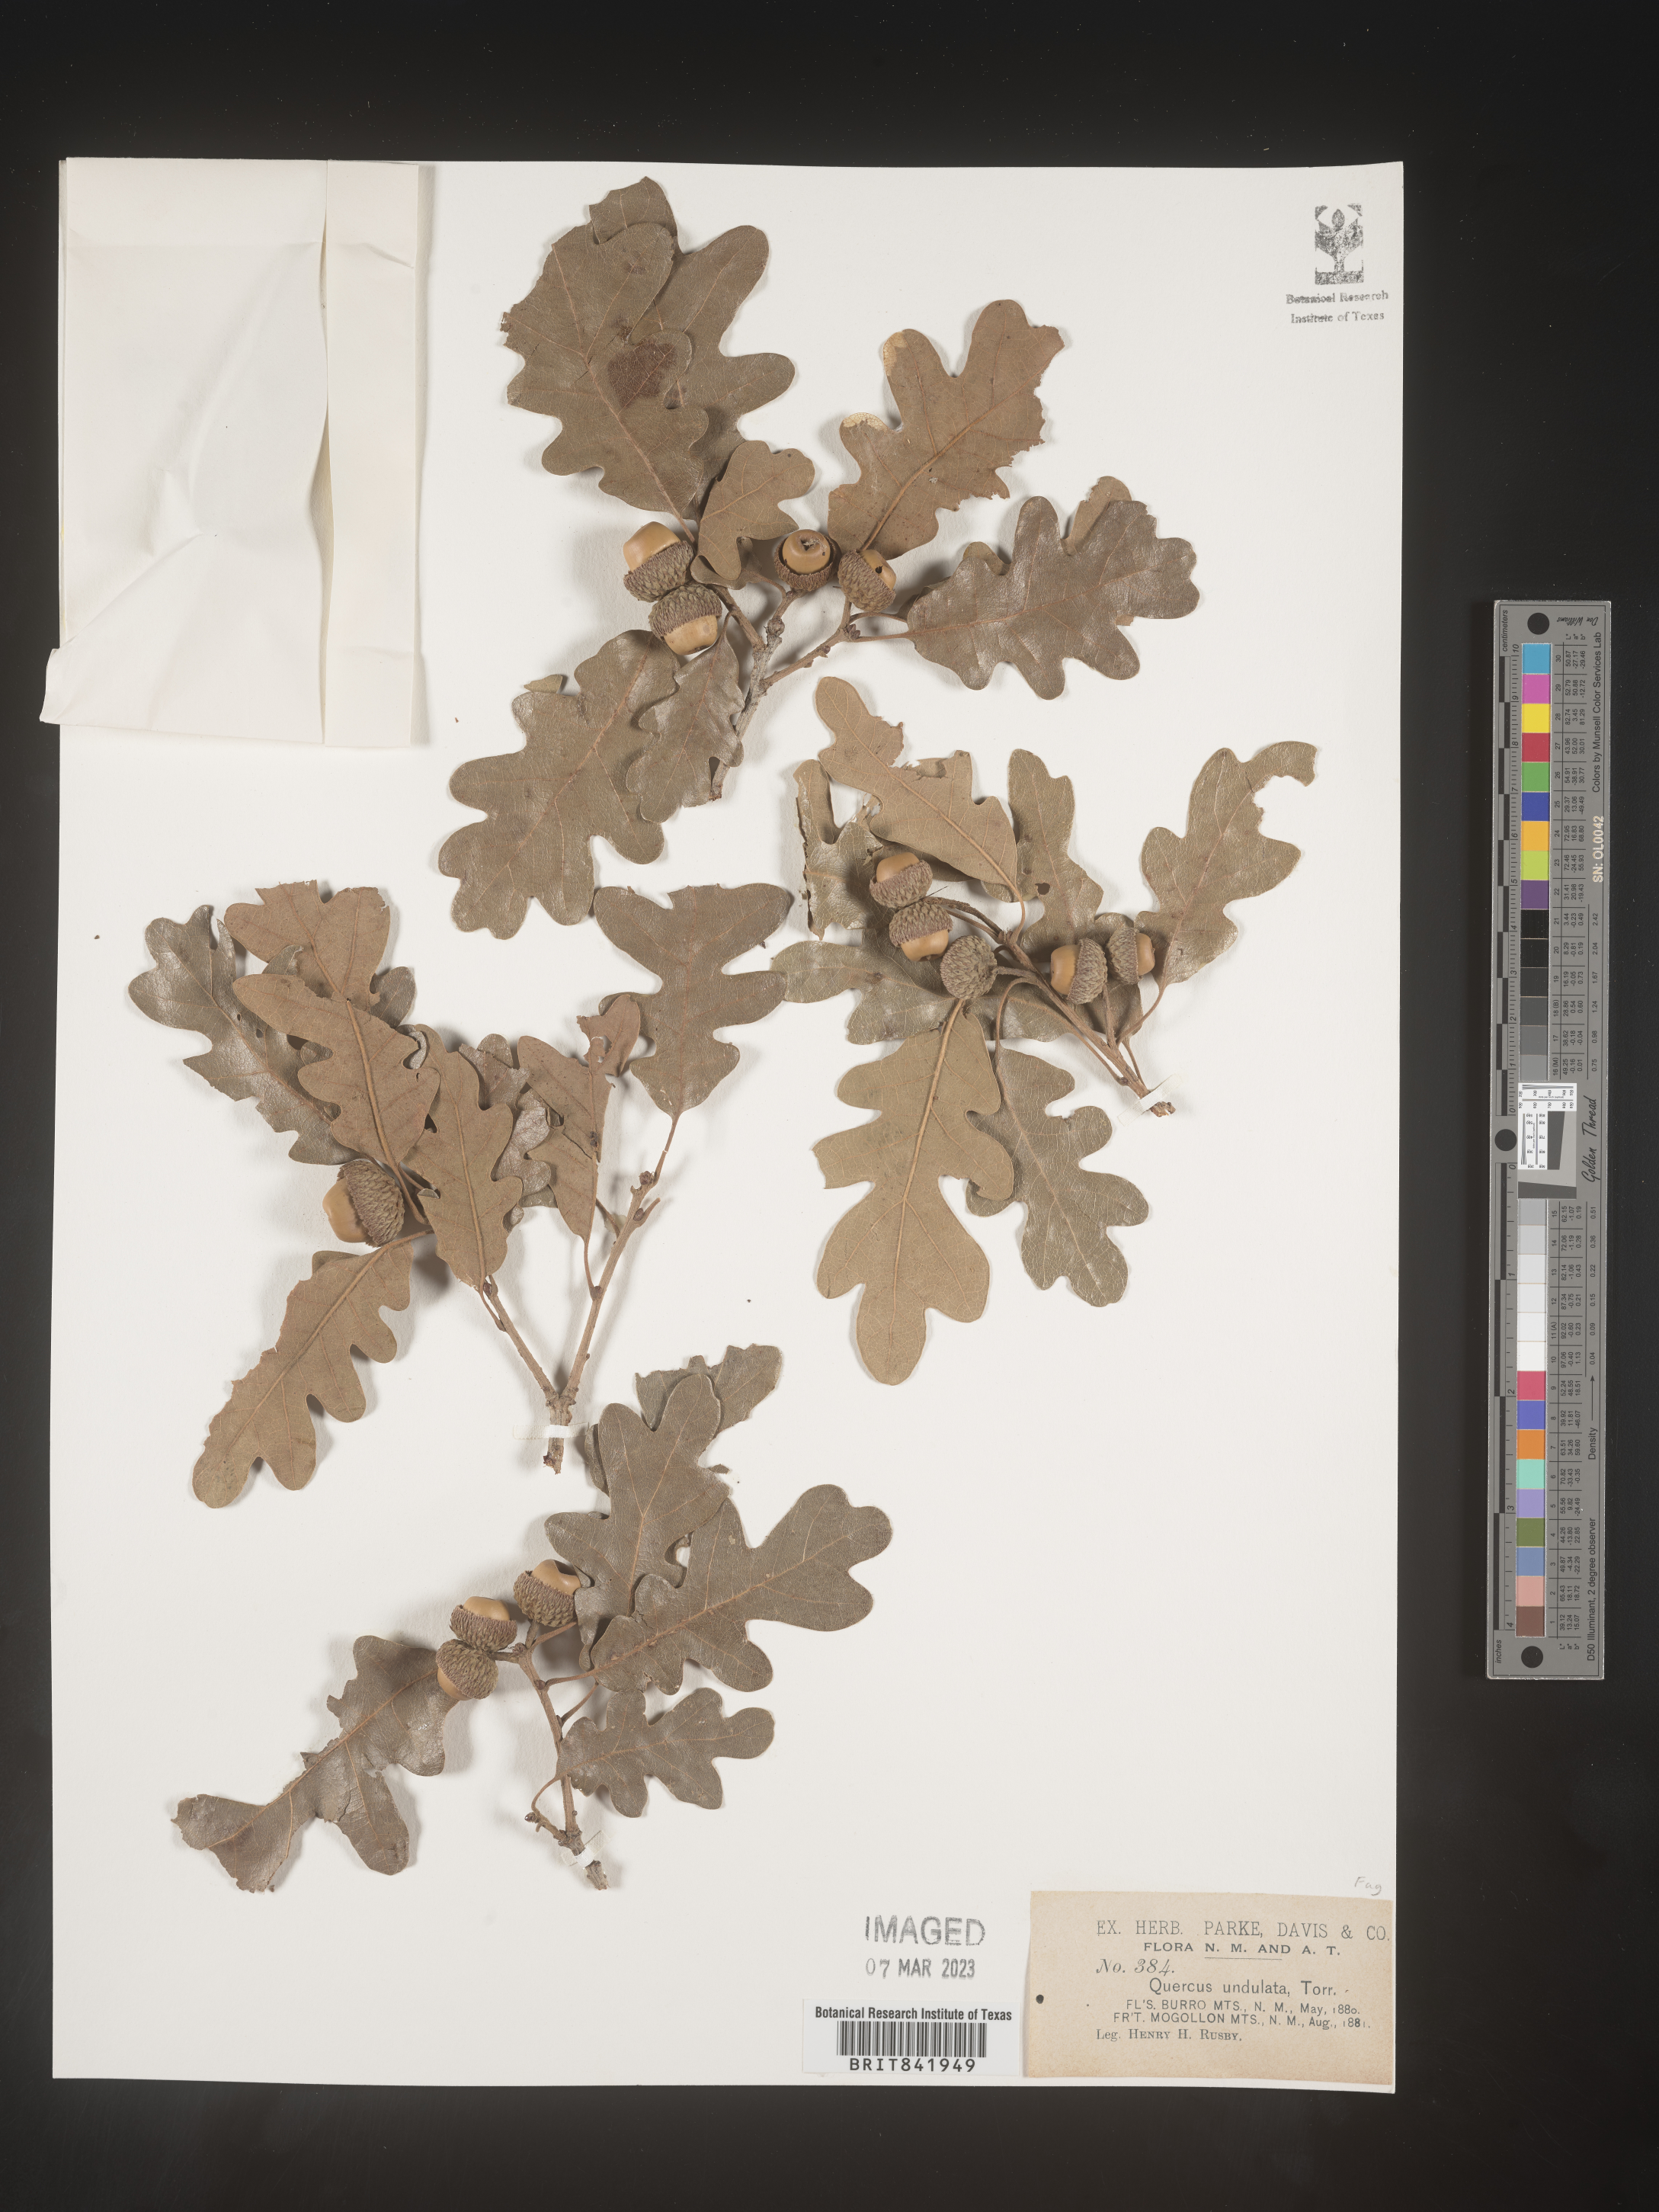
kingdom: Plantae
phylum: Tracheophyta
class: Magnoliopsida
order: Fagales
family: Fagaceae
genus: Quercus
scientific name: Quercus undulata
